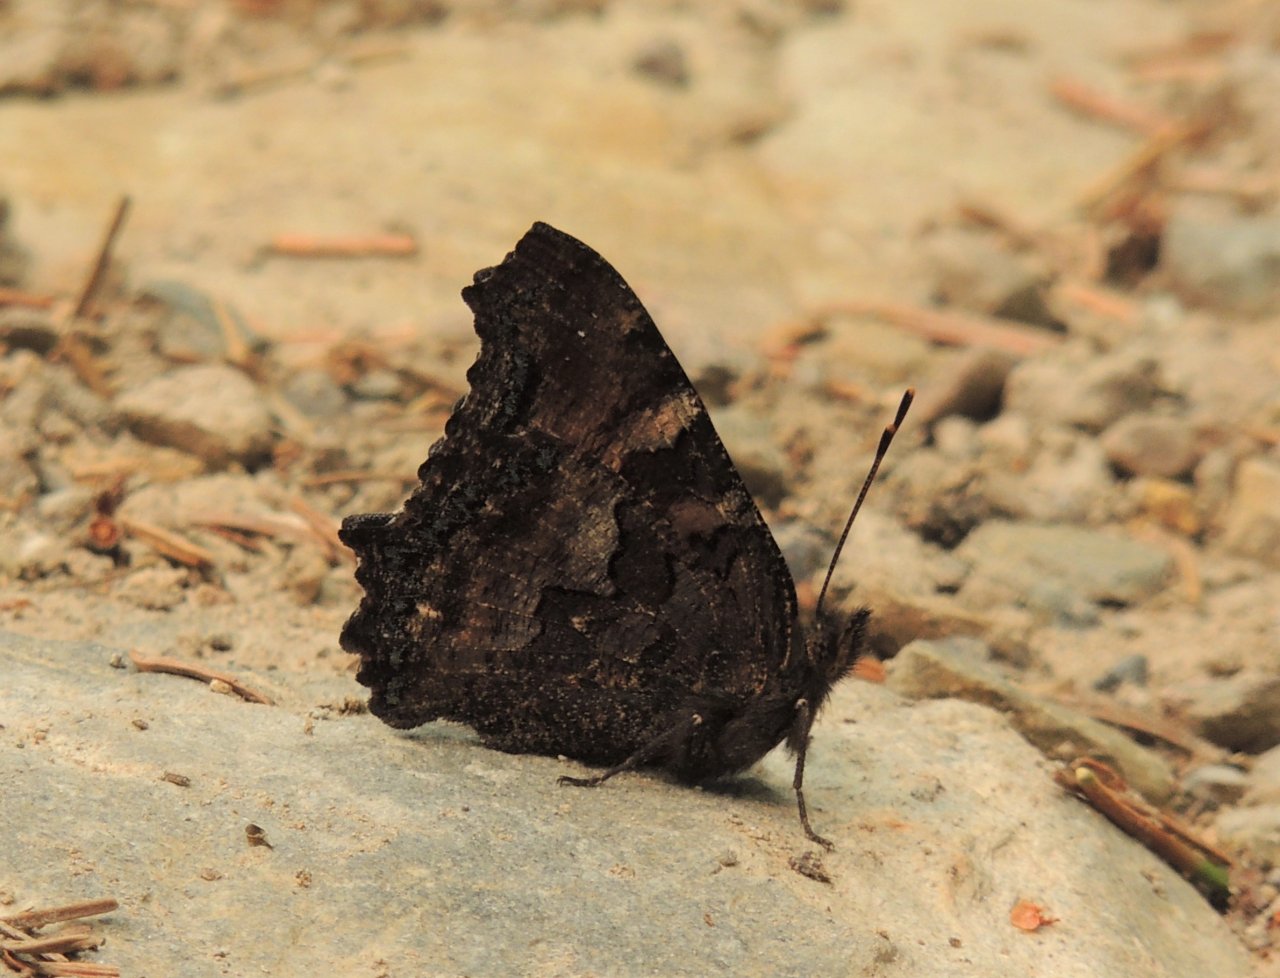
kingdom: Animalia
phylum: Arthropoda
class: Insecta
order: Lepidoptera
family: Nymphalidae
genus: Nymphalis
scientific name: Nymphalis californica
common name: California Tortoiseshell
